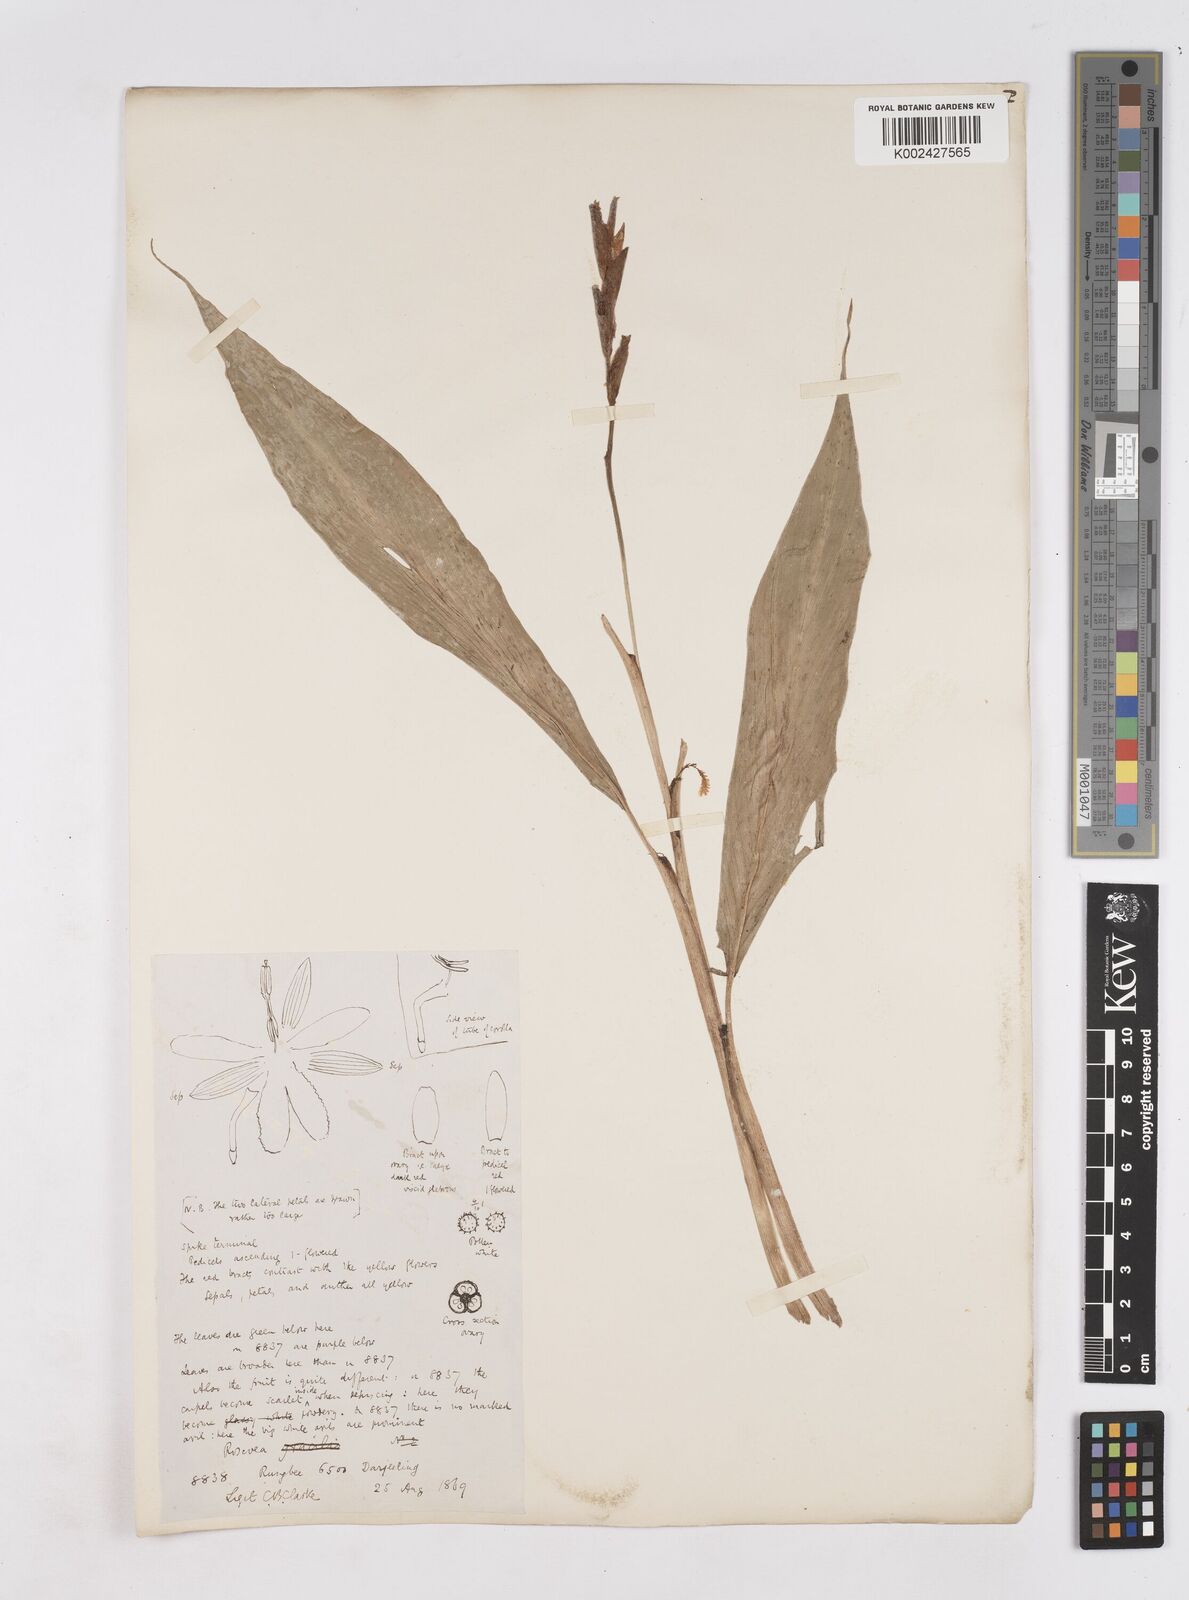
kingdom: Plantae
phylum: Tracheophyta
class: Liliopsida
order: Zingiberales
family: Zingiberaceae
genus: Cautleya
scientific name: Cautleya spicata
